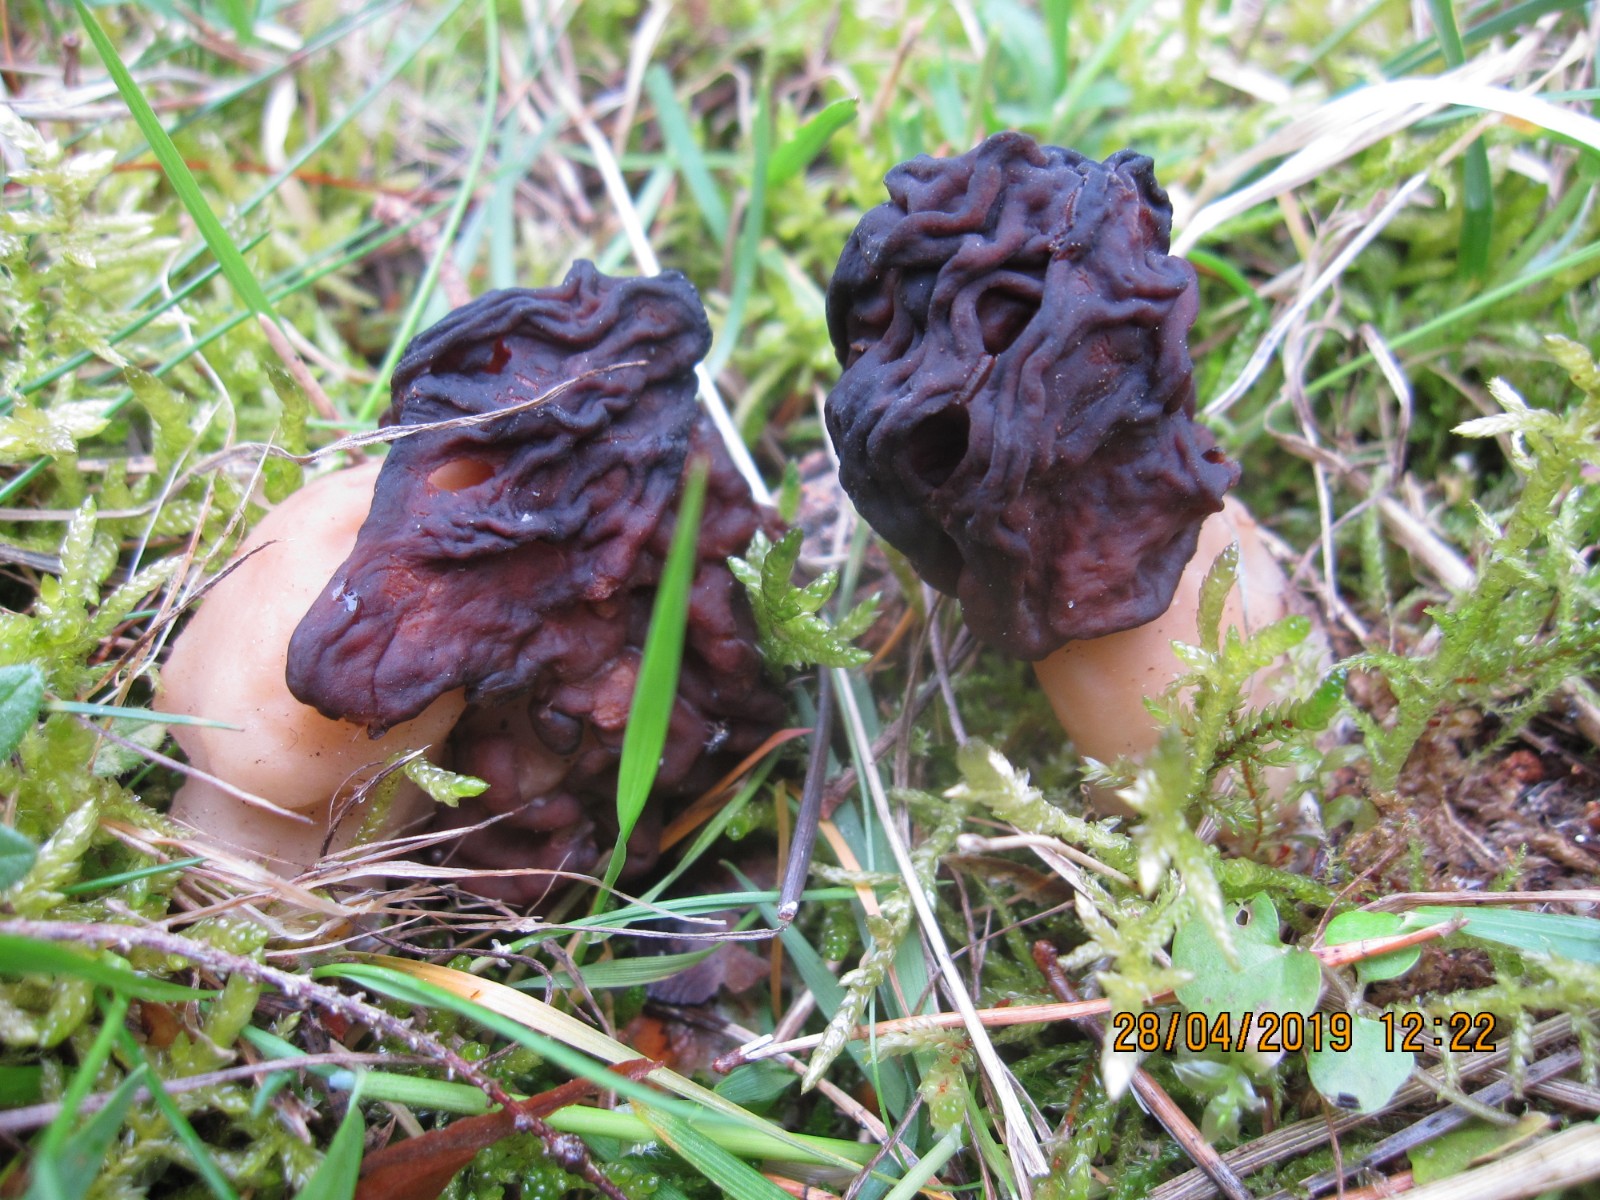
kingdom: Fungi
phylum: Ascomycota
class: Pezizomycetes
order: Pezizales
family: Discinaceae
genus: Gyromitra
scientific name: Gyromitra esculenta
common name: ægte stenmorkel
